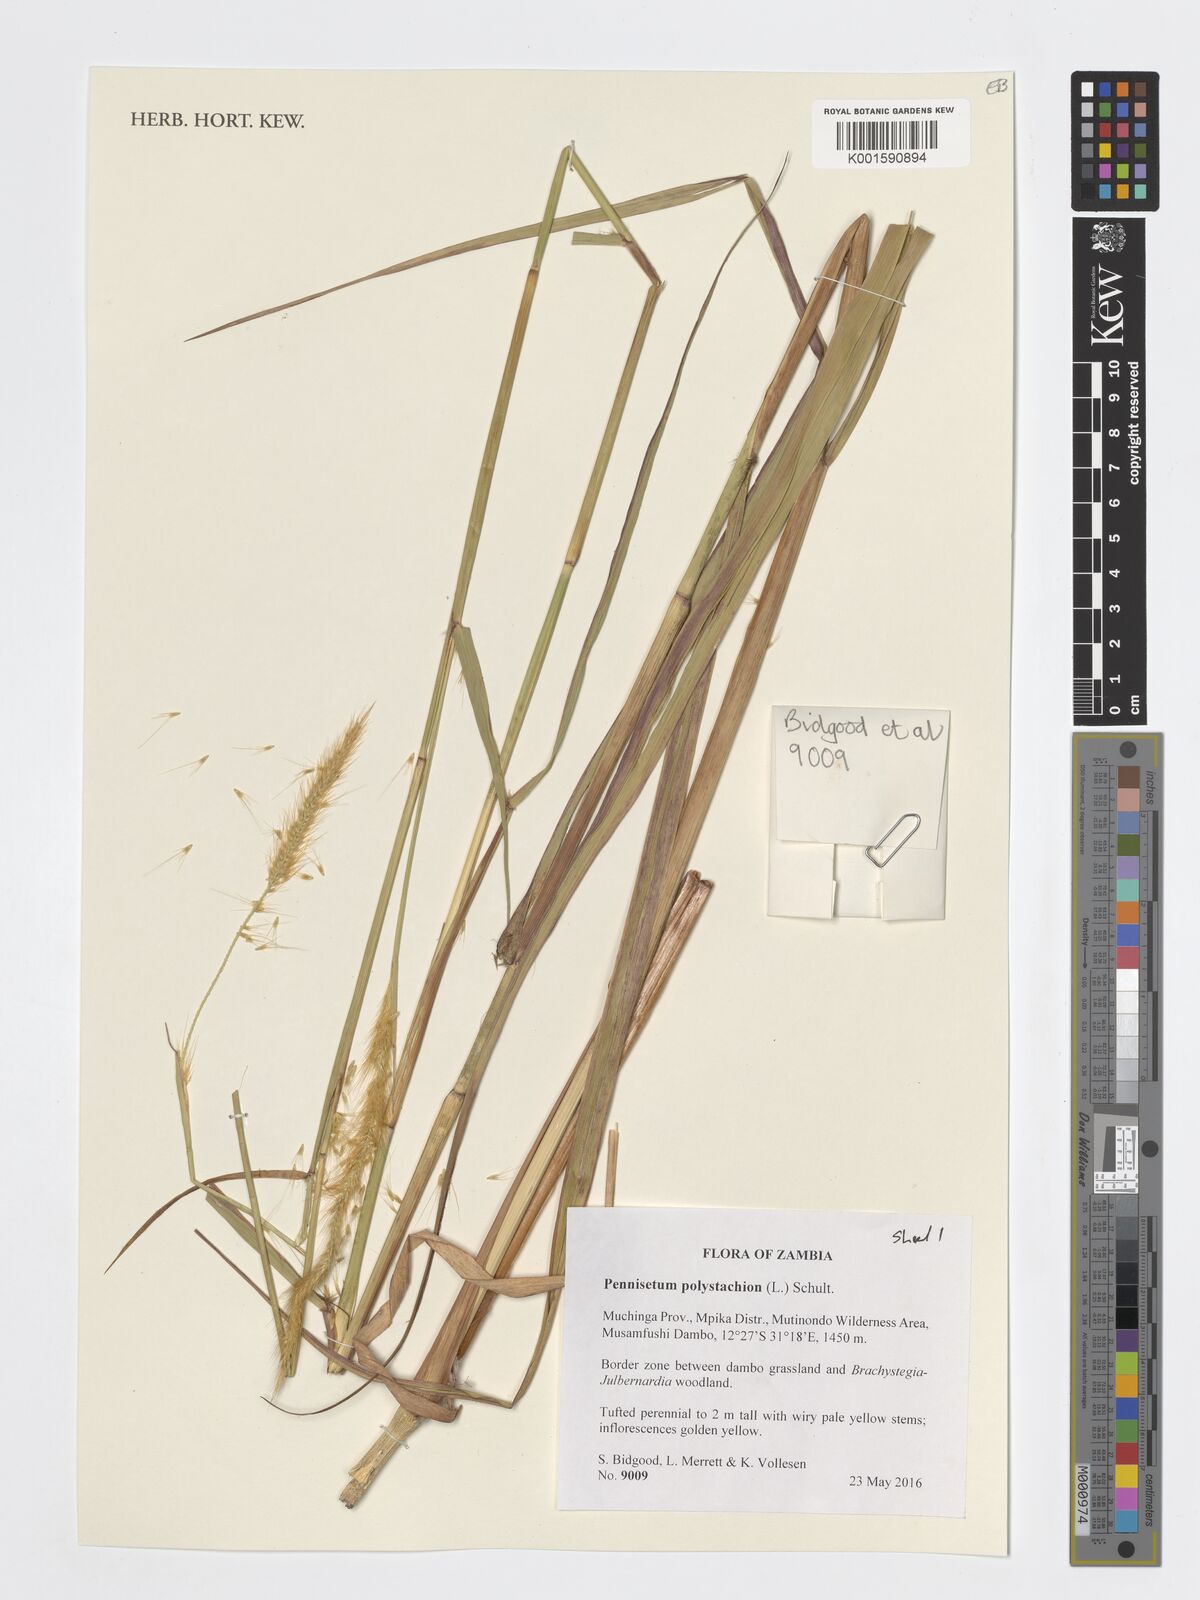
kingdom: Plantae
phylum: Tracheophyta
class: Liliopsida
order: Poales
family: Poaceae
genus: Setaria
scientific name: Setaria parviflora
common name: Knotroot bristle-grass
